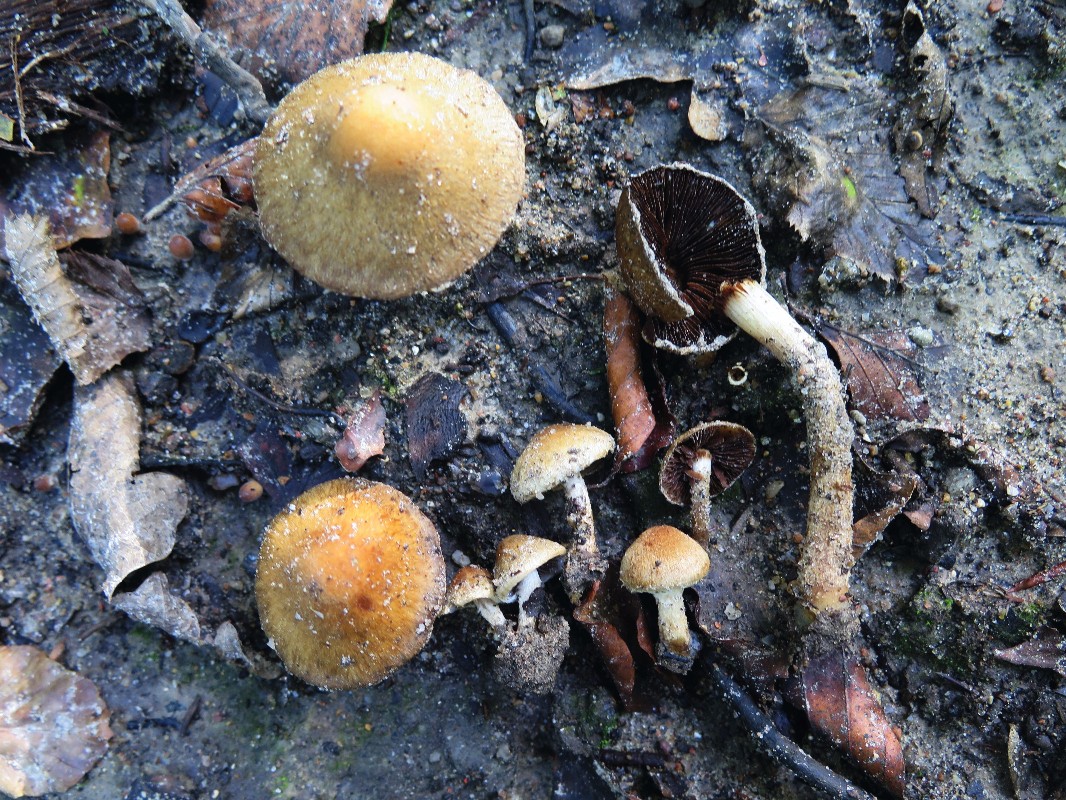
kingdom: Fungi
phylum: Basidiomycota
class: Agaricomycetes
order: Agaricales
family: Psathyrellaceae
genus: Lacrymaria
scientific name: Lacrymaria
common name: mørkhat
